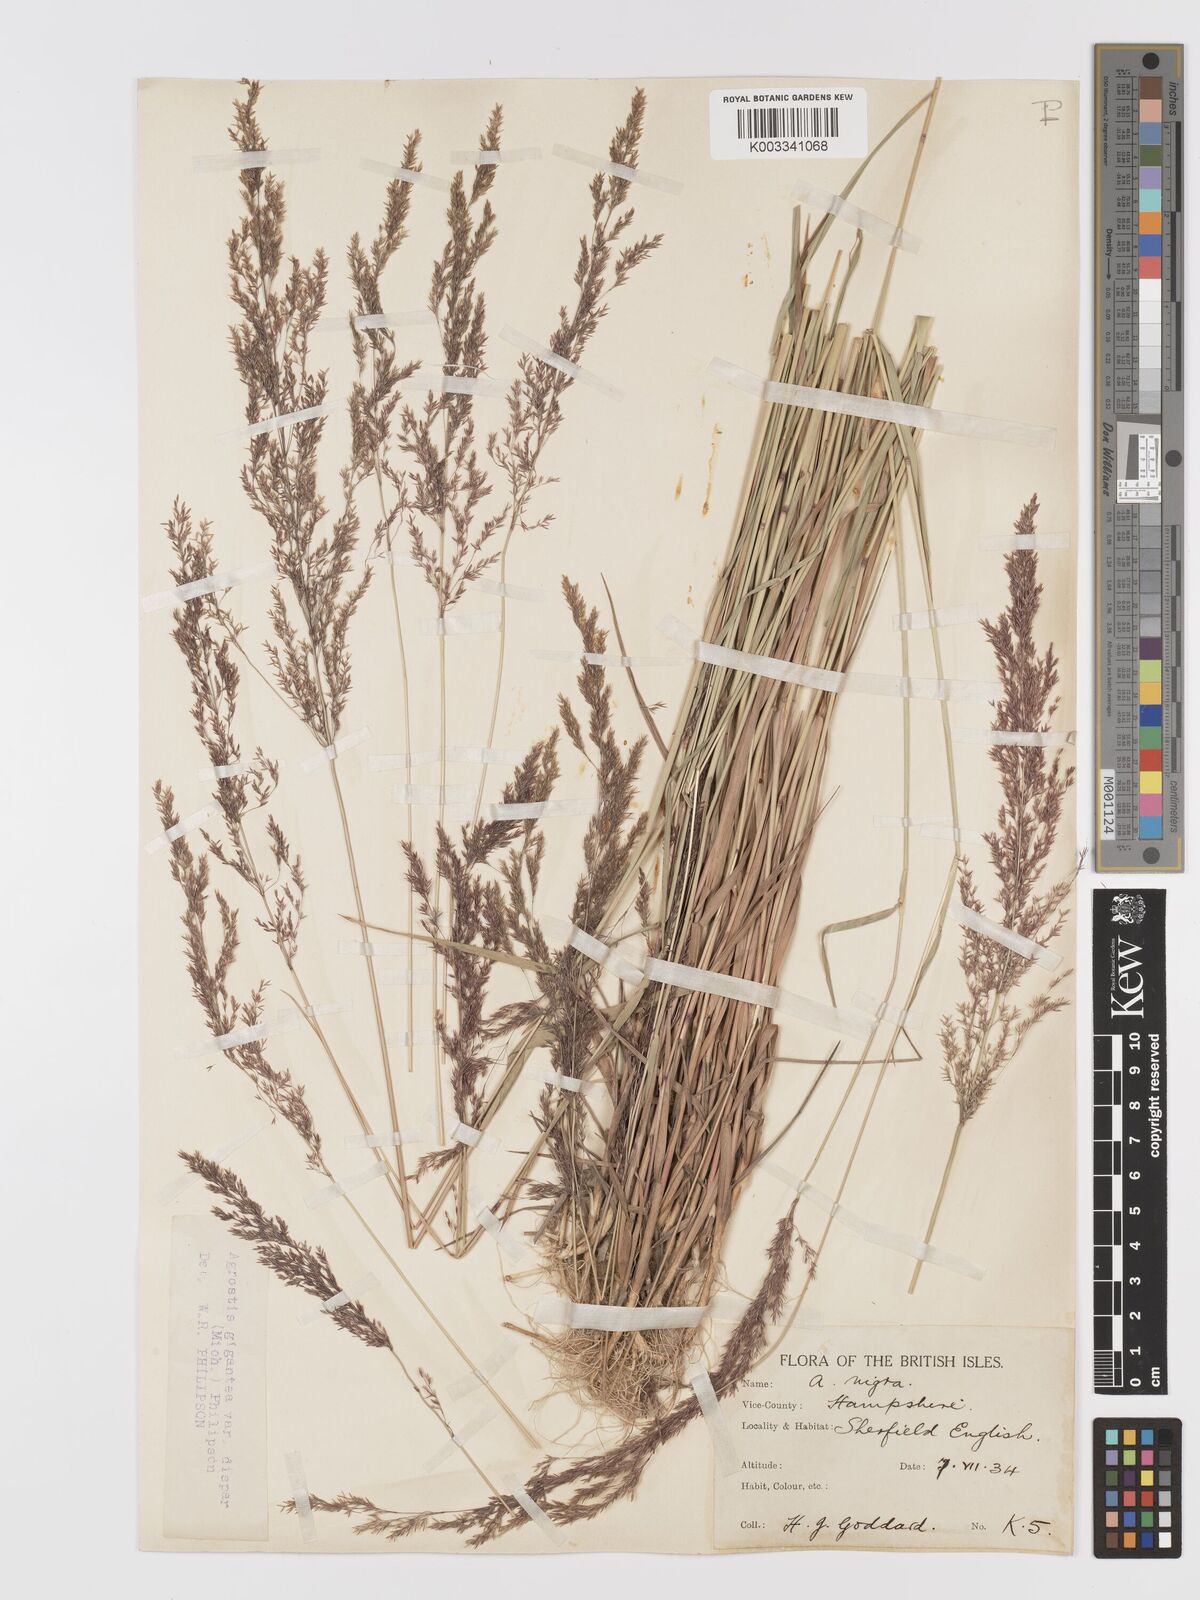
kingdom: Plantae
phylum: Tracheophyta
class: Liliopsida
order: Poales
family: Poaceae
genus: Agrostis
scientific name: Agrostis gigantea
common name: Black bent
